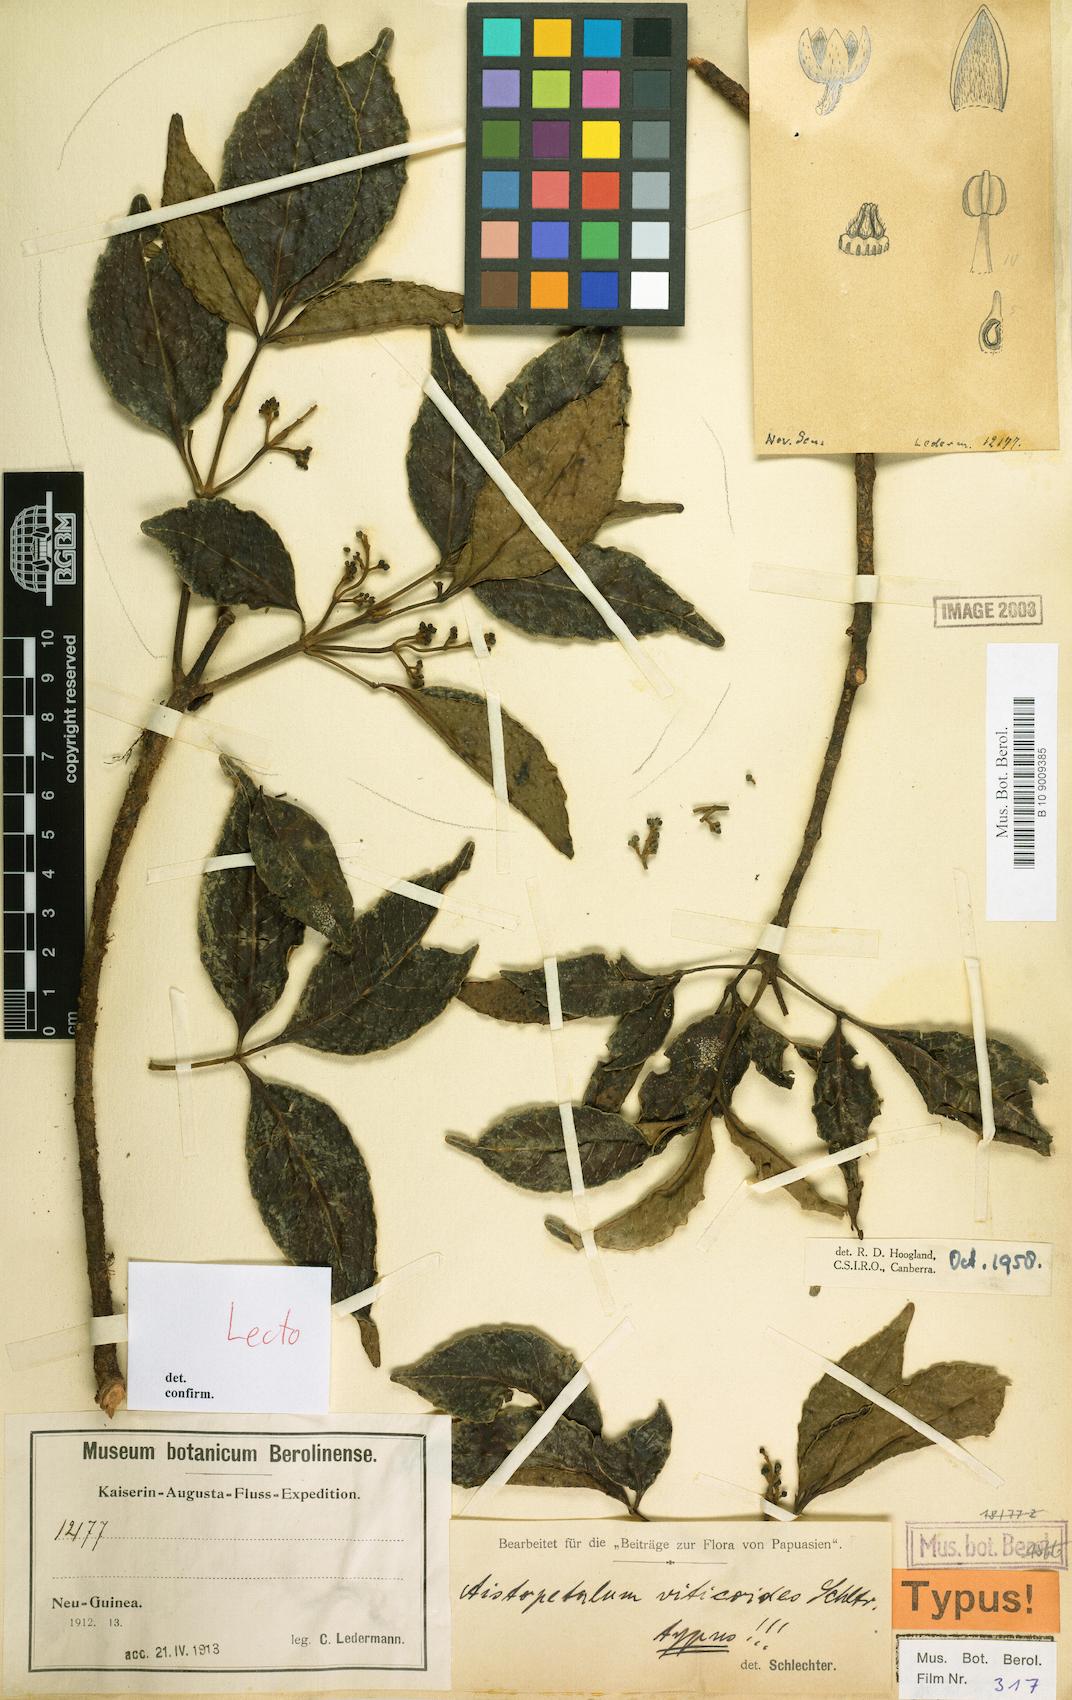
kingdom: Plantae
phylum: Tracheophyta
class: Magnoliopsida
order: Oxalidales
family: Cunoniaceae
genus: Aistopetalum
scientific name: Aistopetalum viticoides
